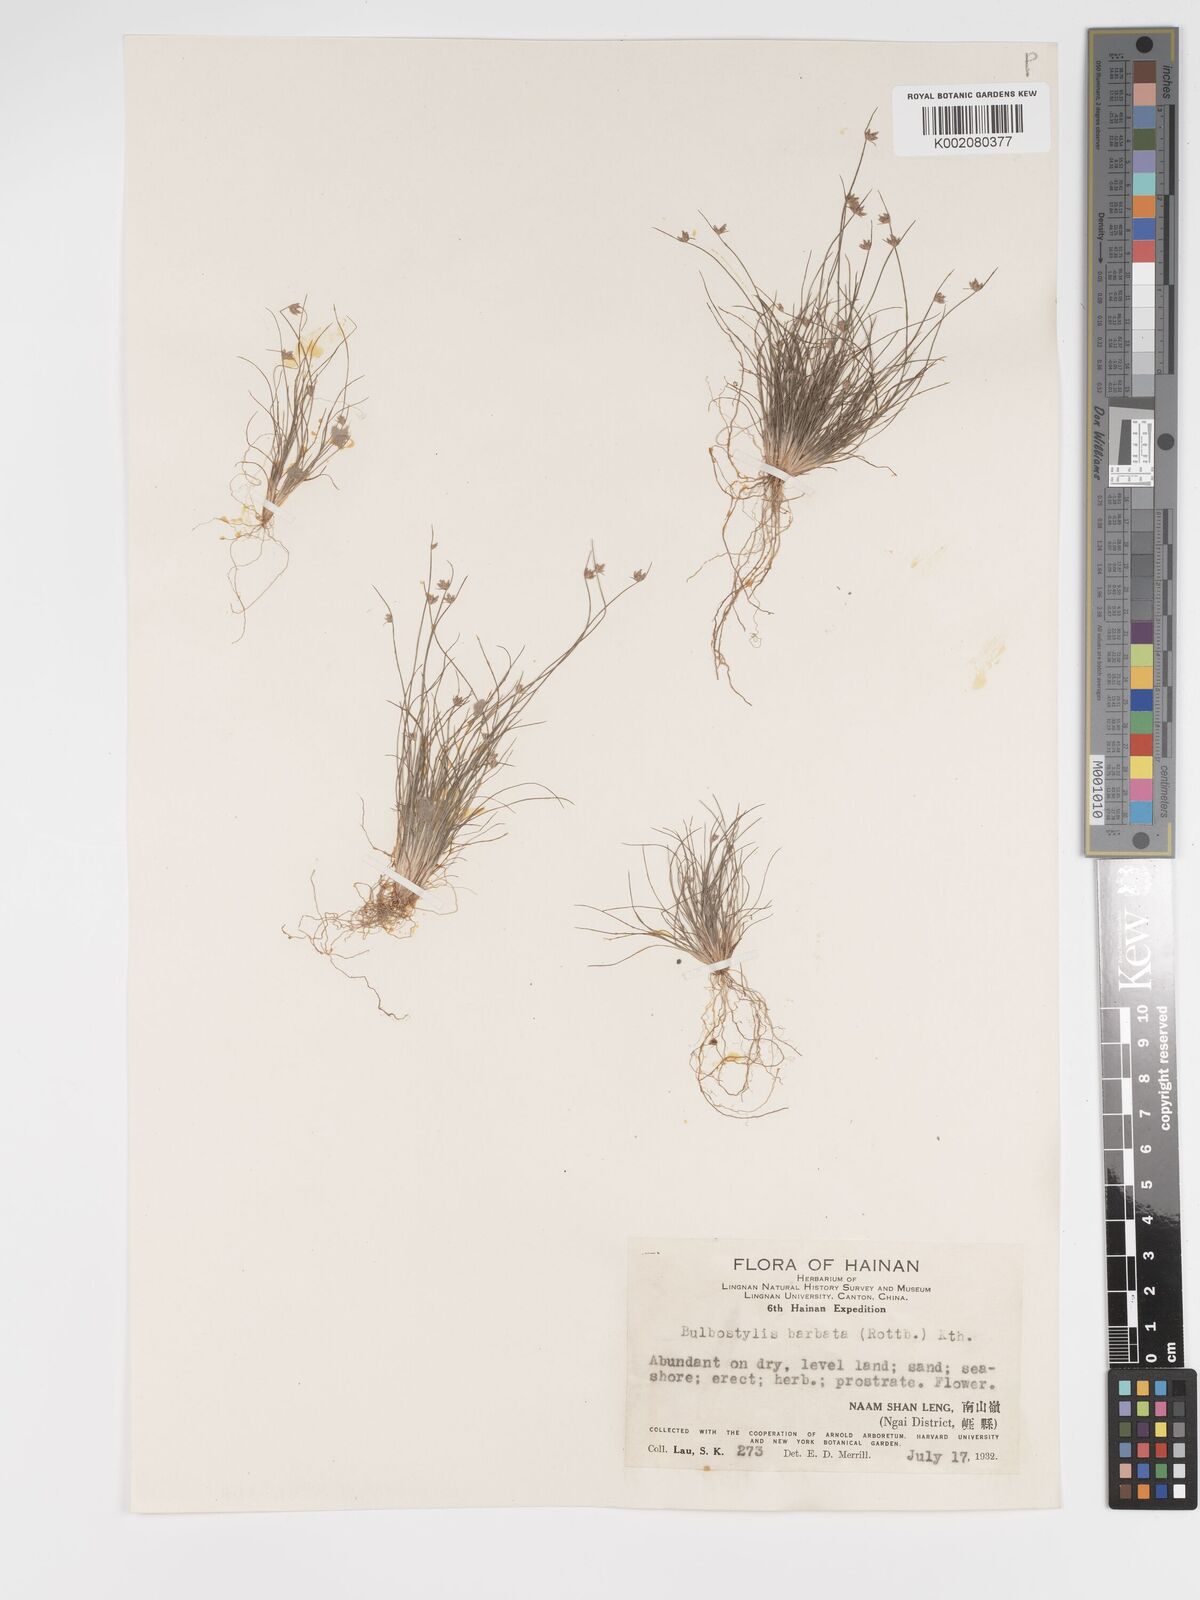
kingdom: Plantae
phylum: Tracheophyta
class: Liliopsida
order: Poales
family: Cyperaceae
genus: Bulbostylis
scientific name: Bulbostylis barbata
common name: Watergrass
